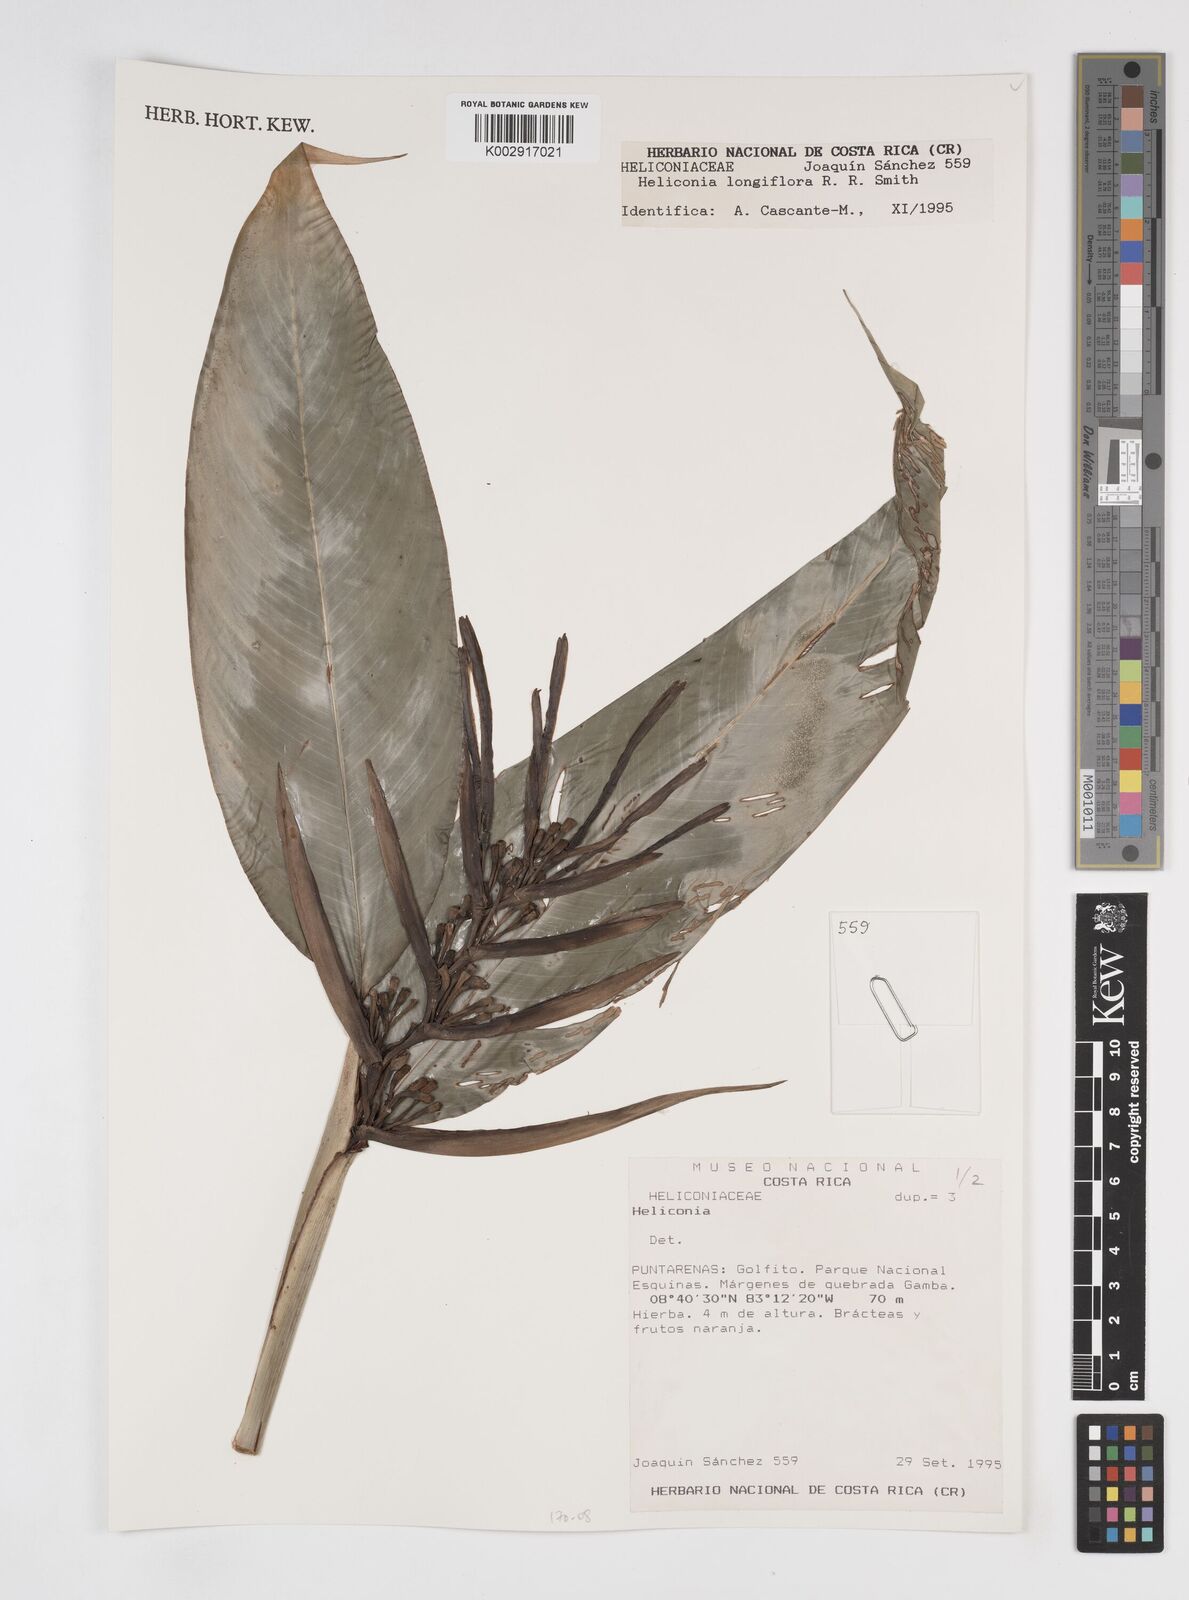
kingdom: Plantae
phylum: Tracheophyta
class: Liliopsida
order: Zingiberales
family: Heliconiaceae
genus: Heliconia
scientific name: Heliconia
